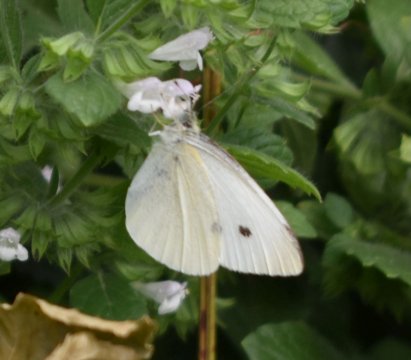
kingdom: Animalia
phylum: Arthropoda
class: Insecta
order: Lepidoptera
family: Pieridae
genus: Pieris
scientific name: Pieris rapae
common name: Cabbage White
